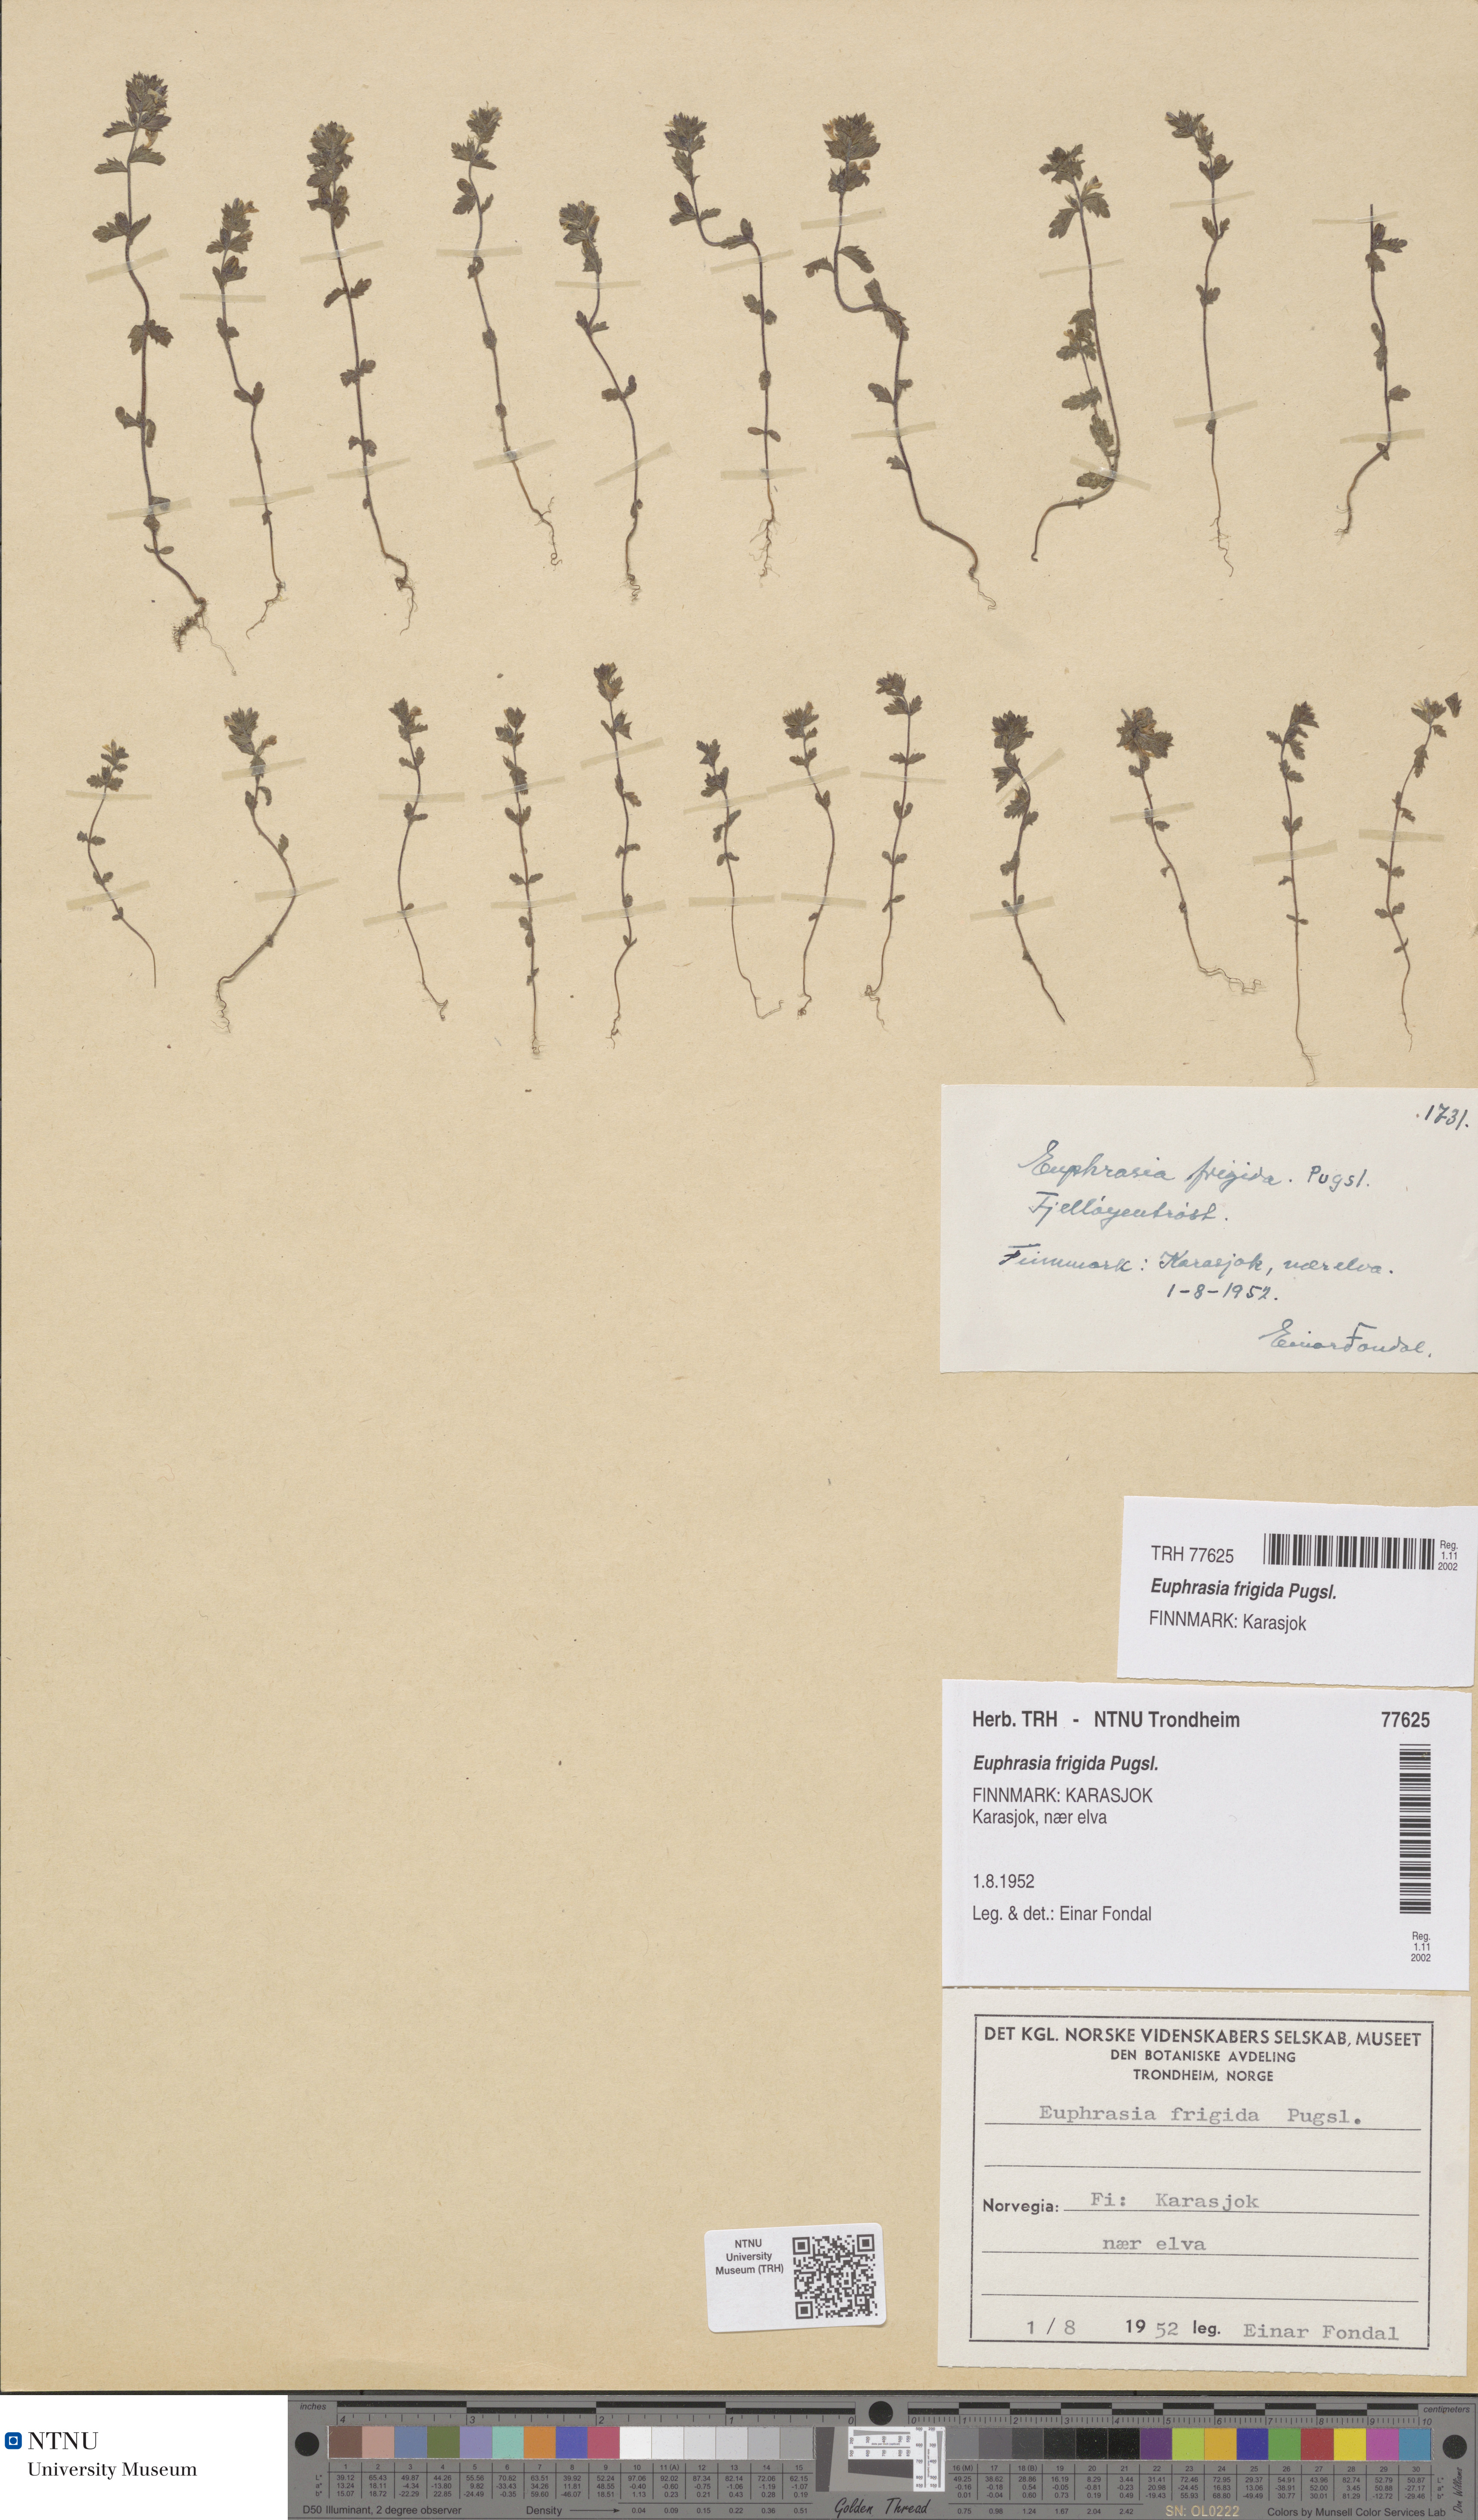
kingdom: Plantae
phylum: Tracheophyta
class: Magnoliopsida
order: Lamiales
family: Orobanchaceae
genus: Euphrasia
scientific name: Euphrasia wettsteinii
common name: Wettstein's eyebright
